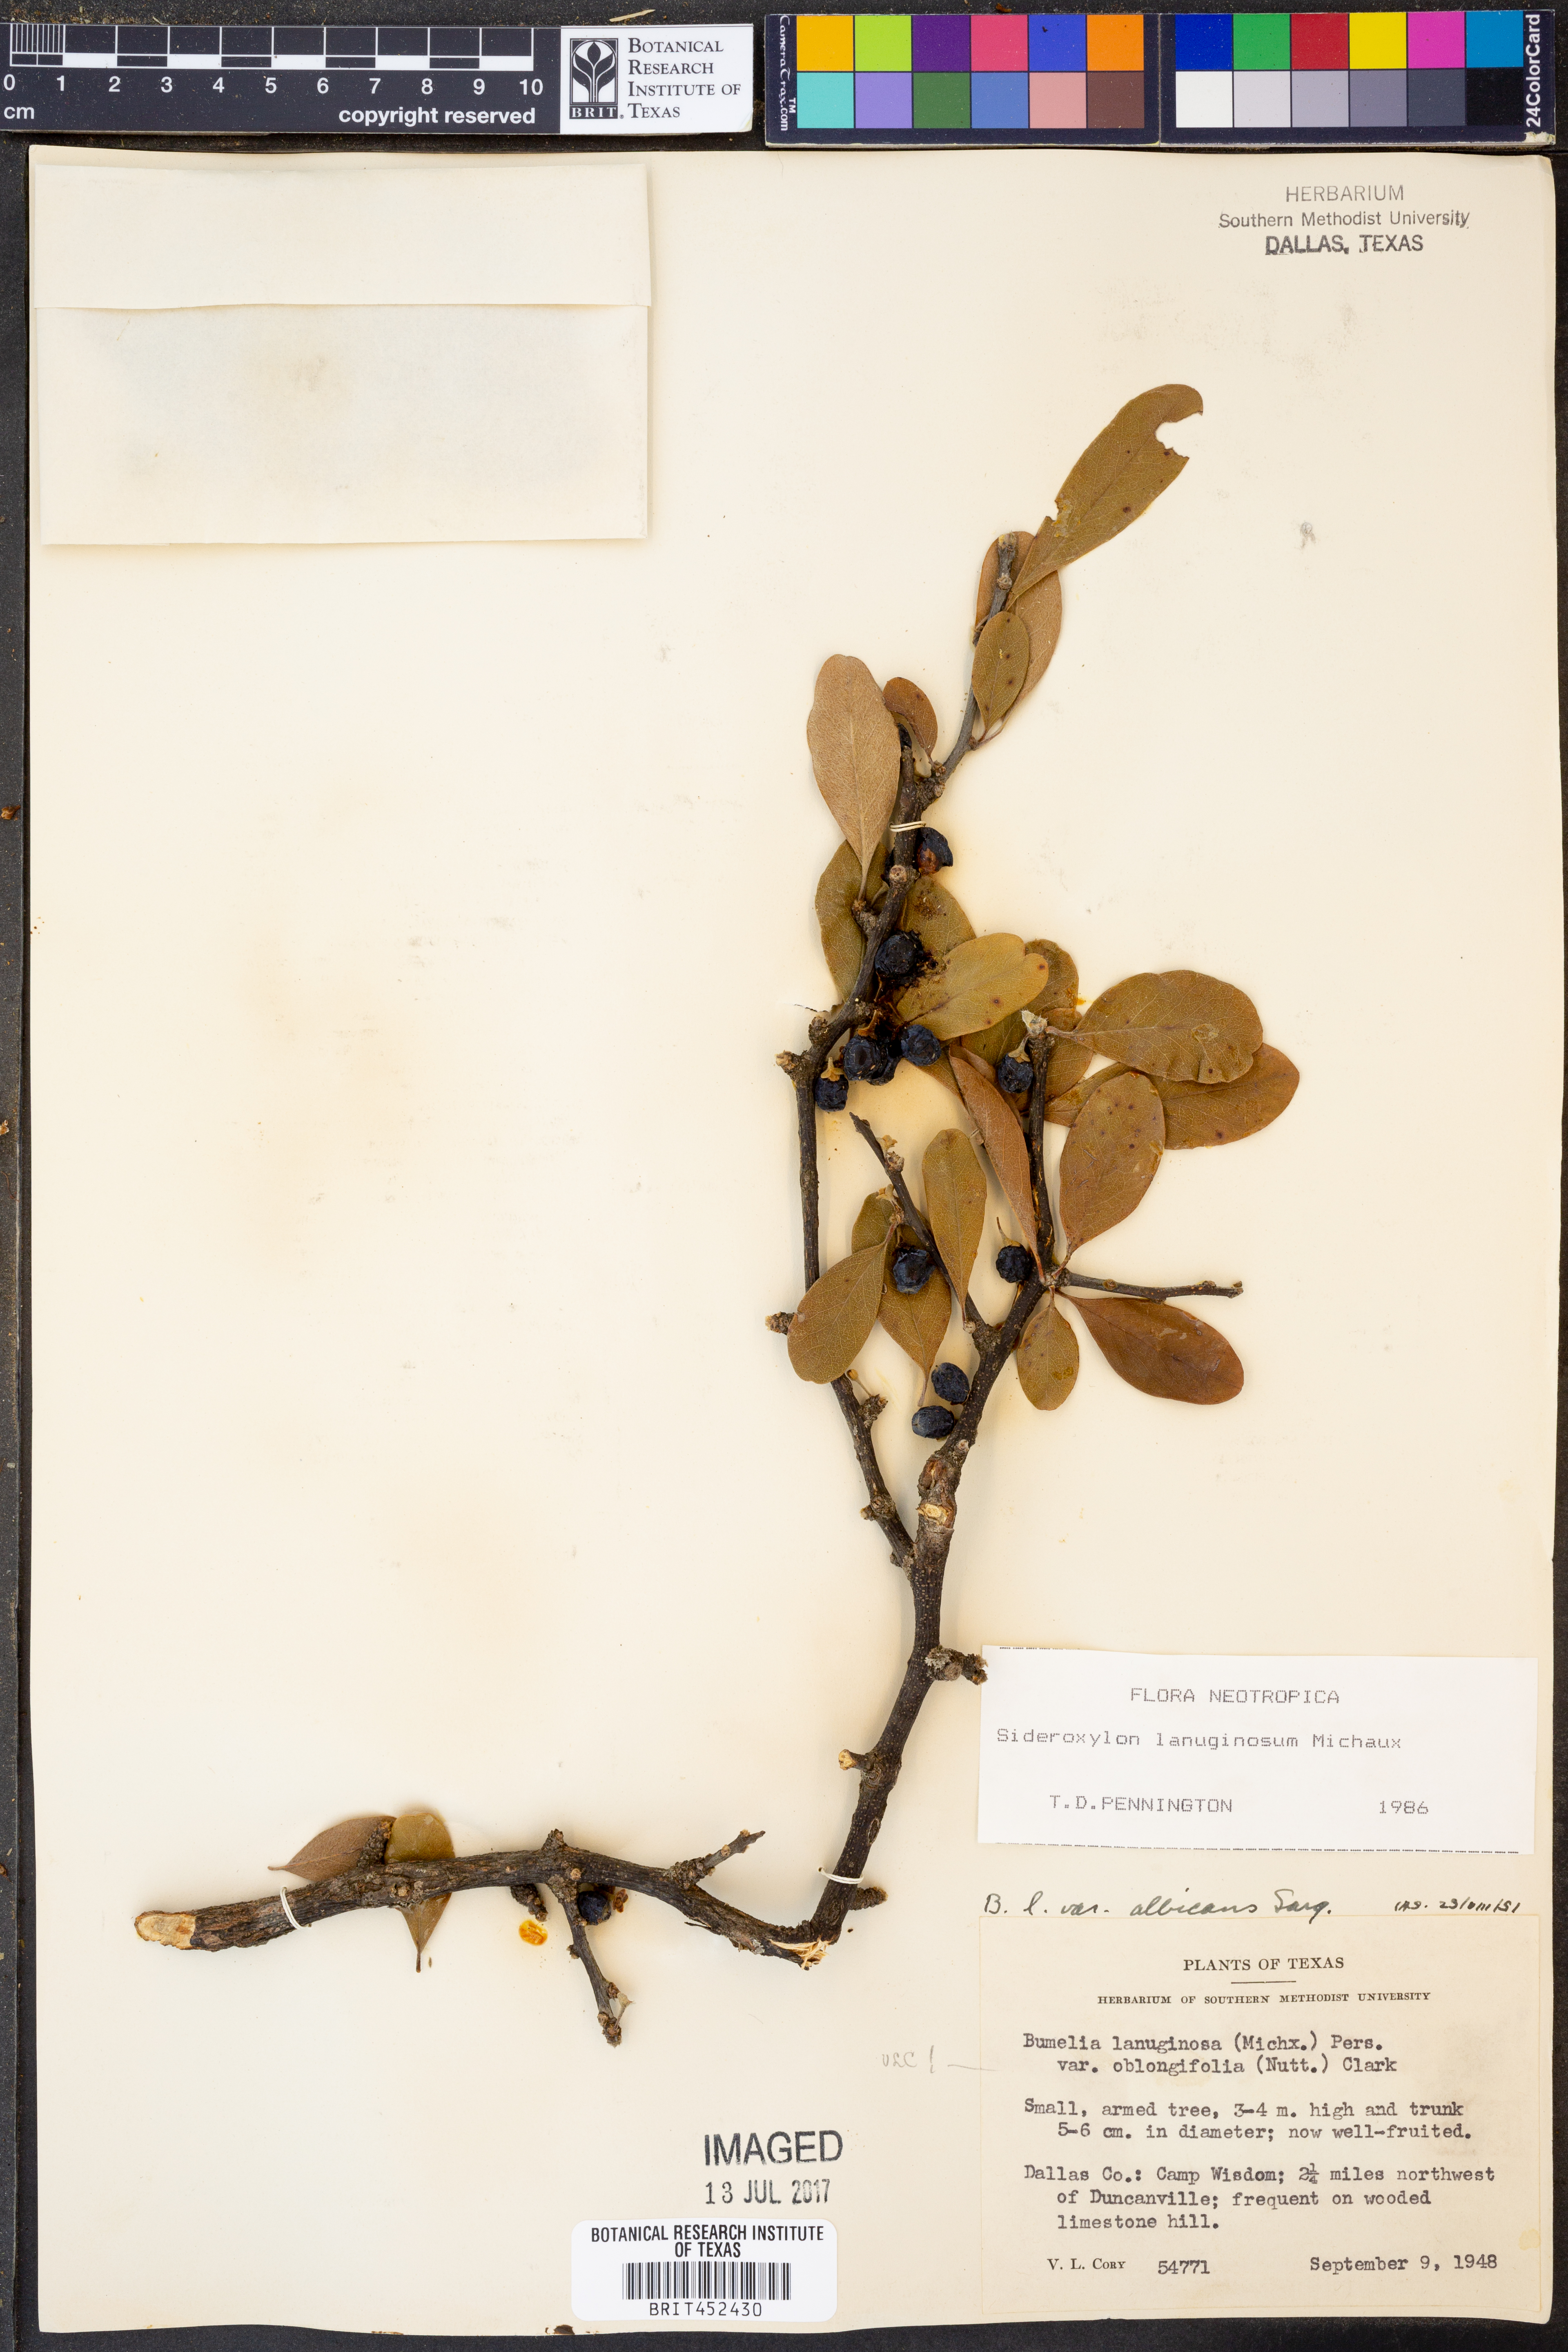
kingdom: Plantae
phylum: Tracheophyta
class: Magnoliopsida
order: Ericales
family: Sapotaceae
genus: Sideroxylon
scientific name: Sideroxylon lanuginosum
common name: Chittamwood
